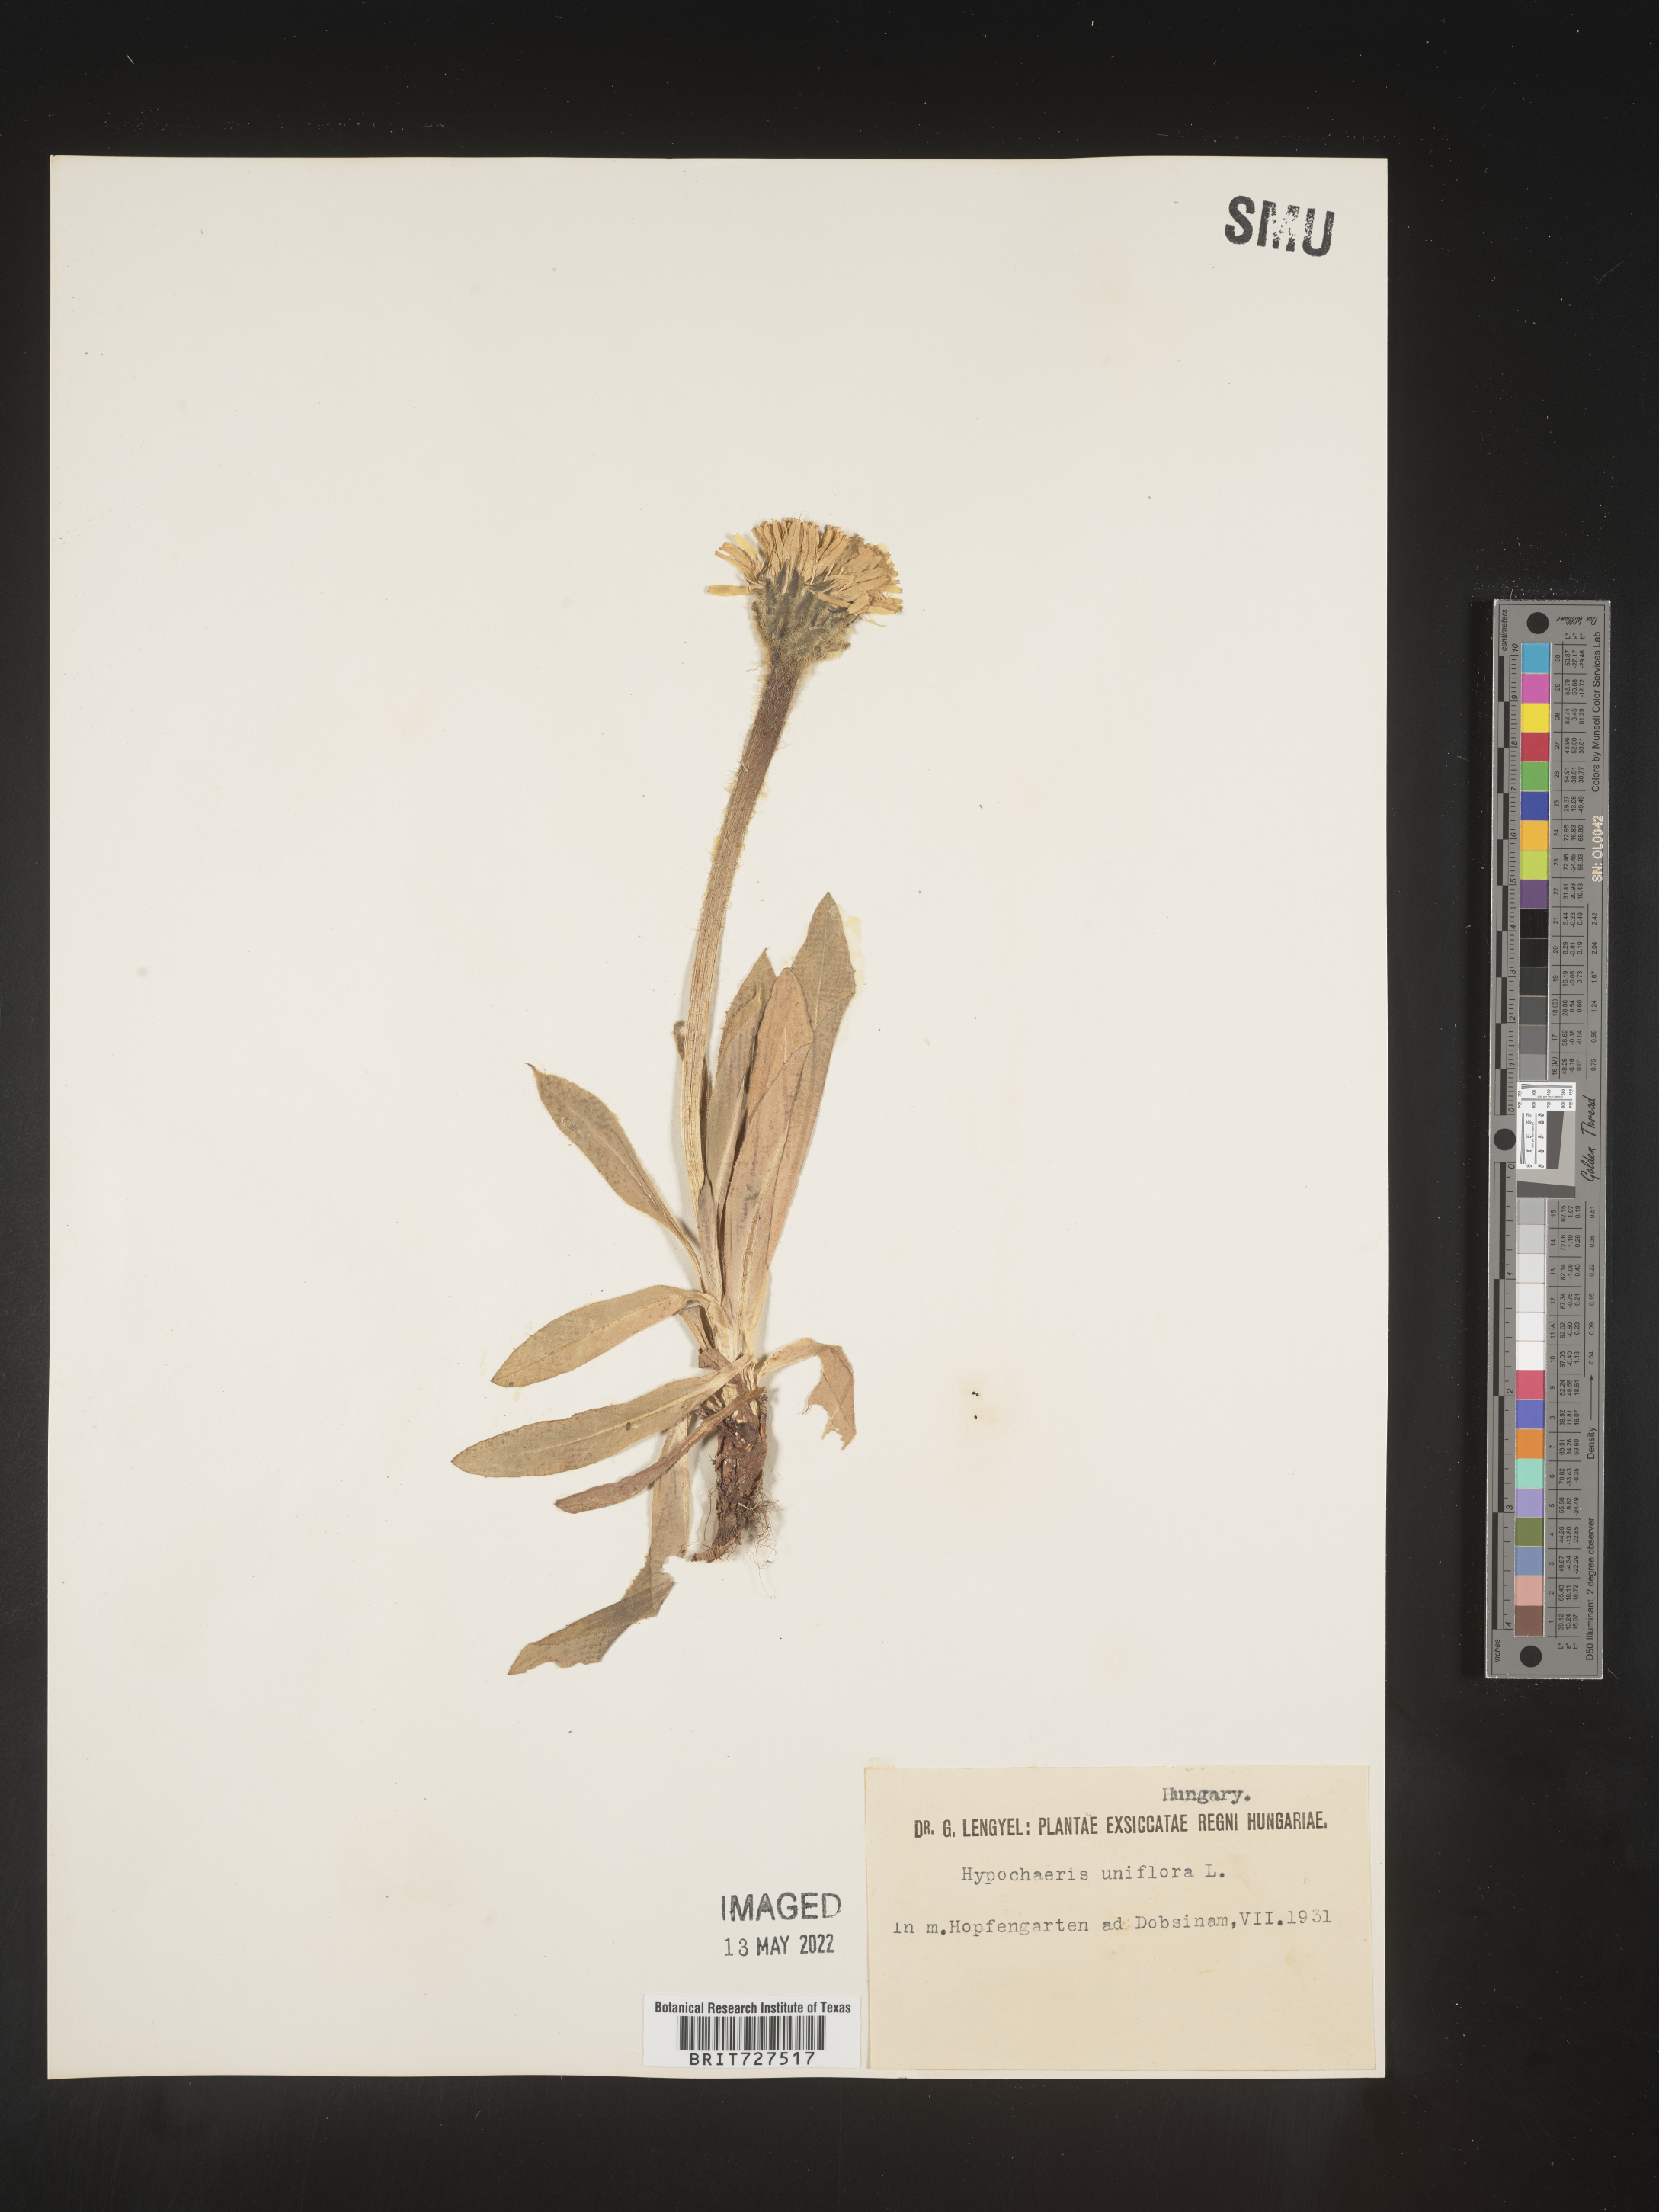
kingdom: Plantae
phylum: Tracheophyta
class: Magnoliopsida
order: Asterales
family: Asteraceae
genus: Hypochaeris
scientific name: Hypochaeris
